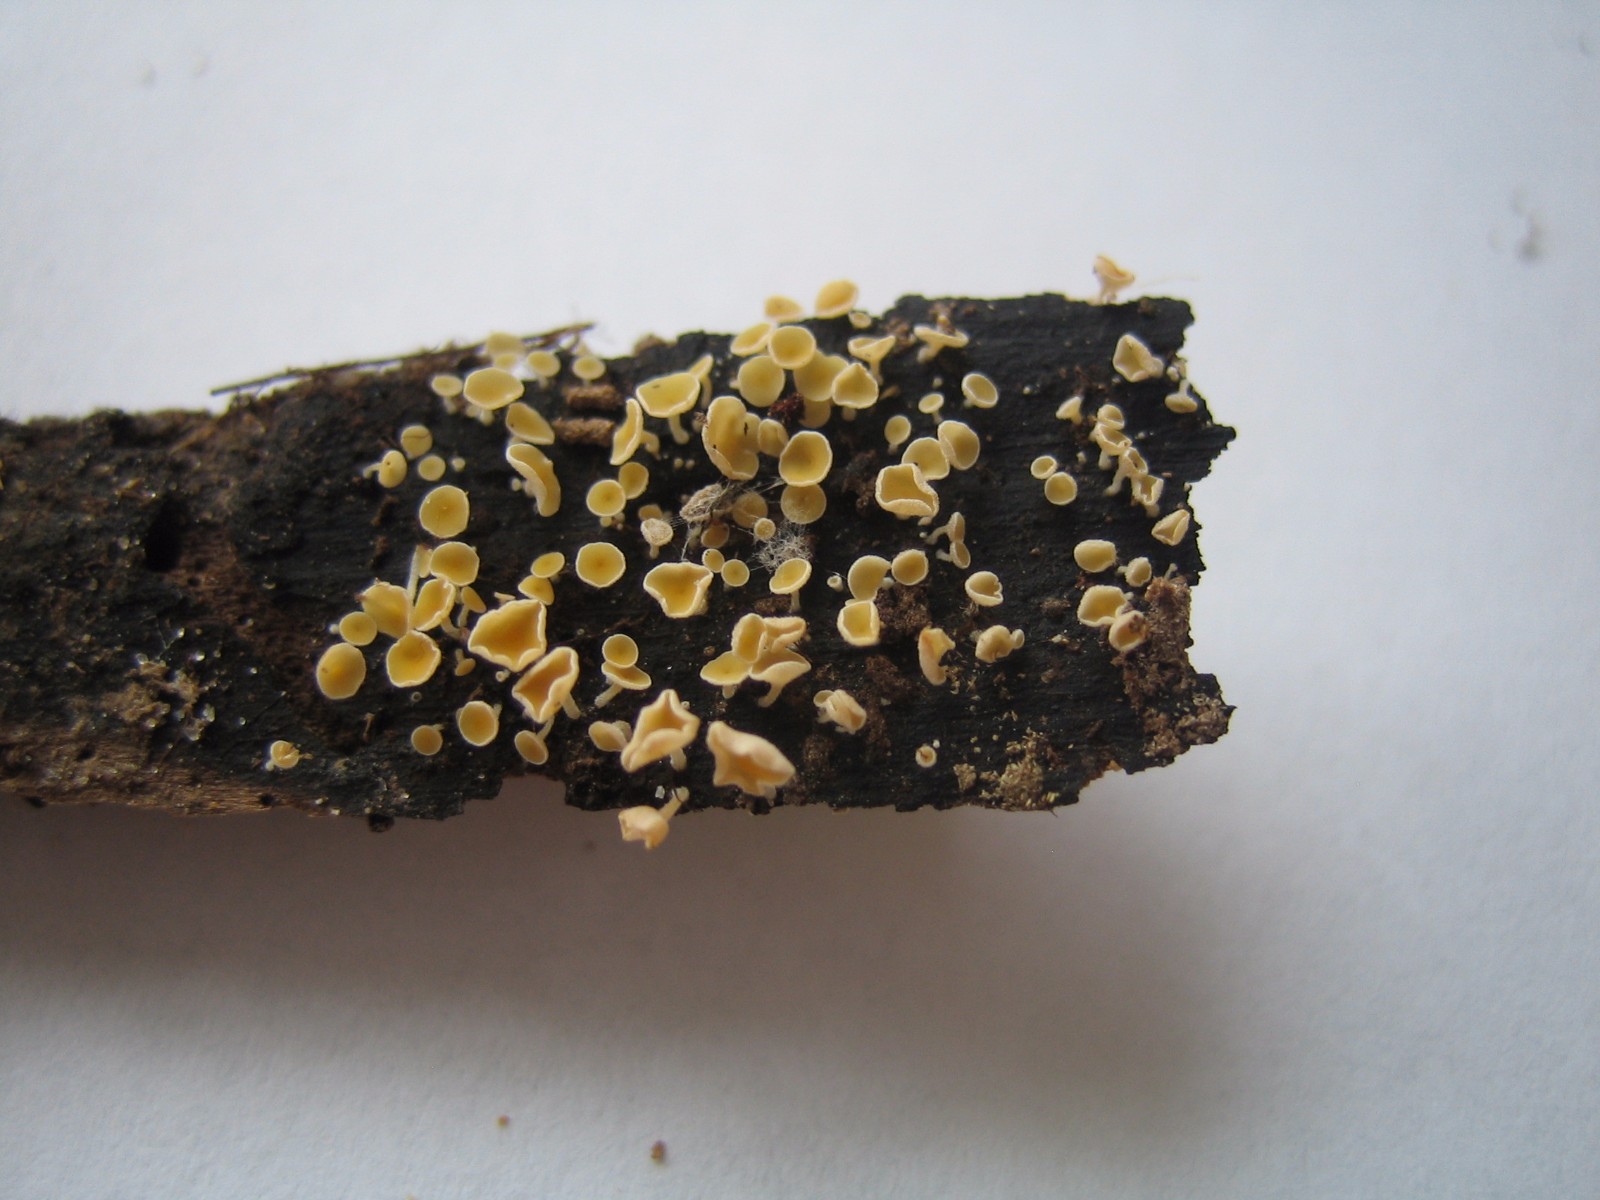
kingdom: Fungi
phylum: Ascomycota
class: Leotiomycetes
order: Helotiales
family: Lachnaceae
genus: Lachnum
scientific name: Lachnum brevipilosum
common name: korthåret frynseskive
